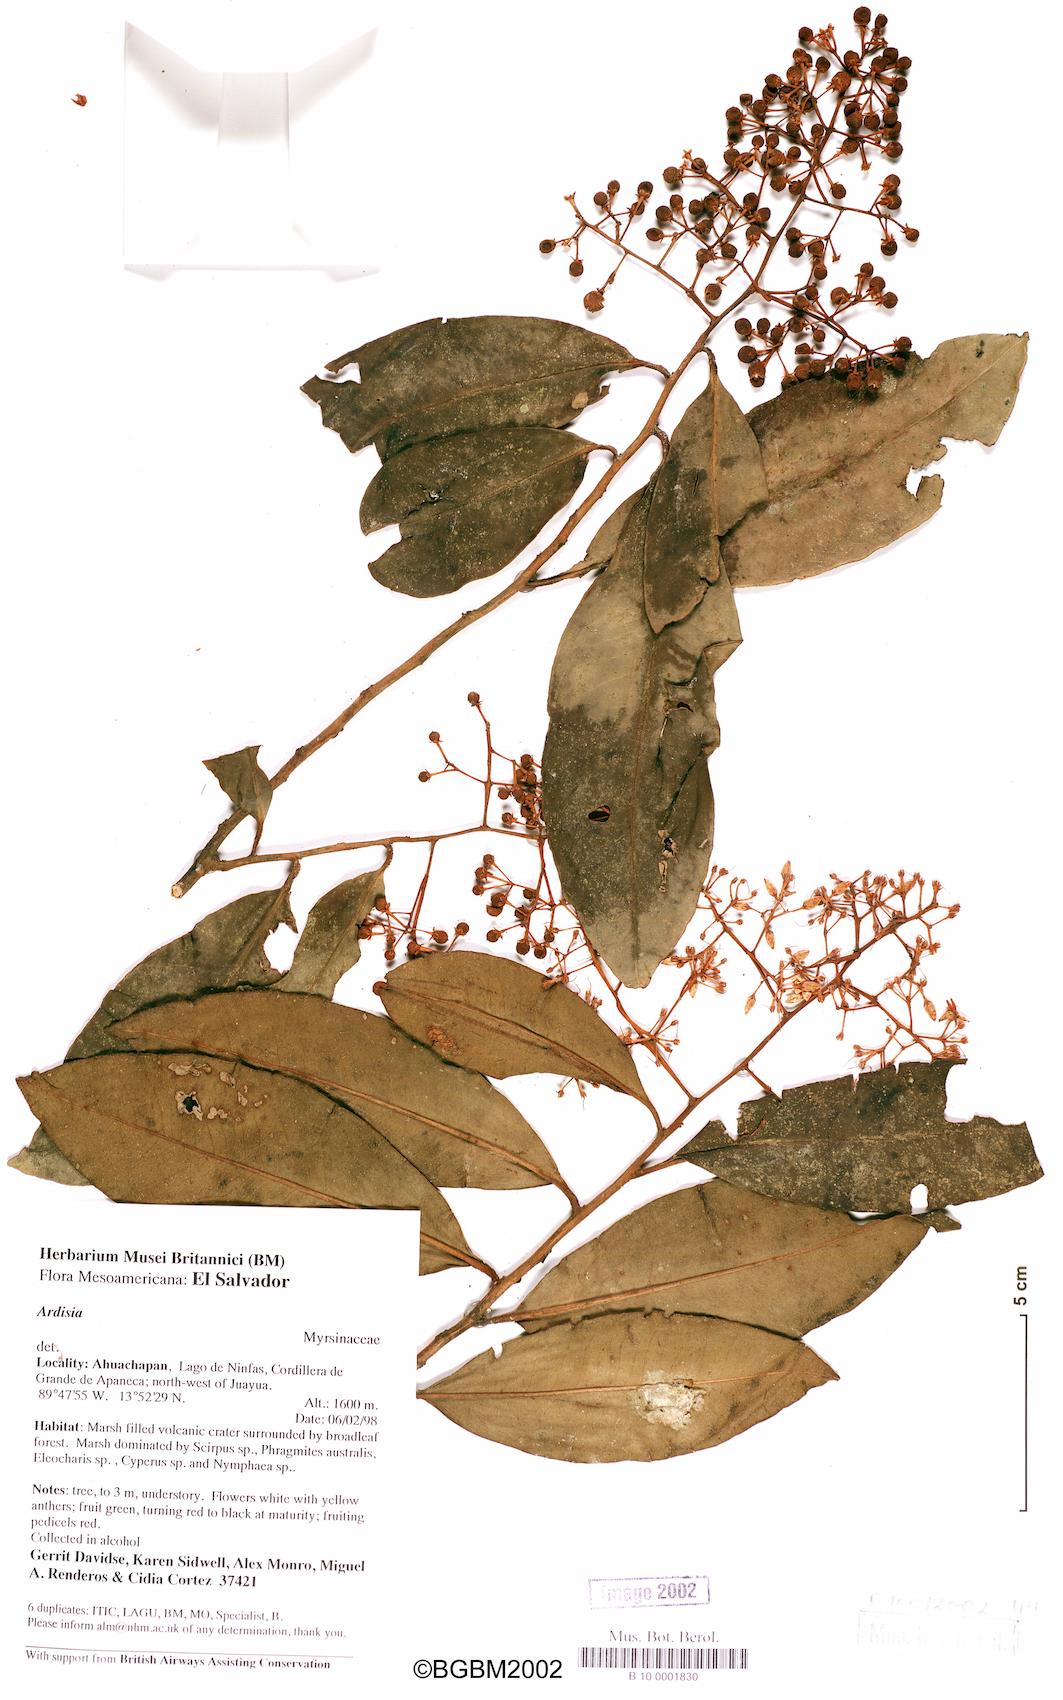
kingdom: Plantae
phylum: Tracheophyta
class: Magnoliopsida
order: Ericales
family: Primulaceae
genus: Ardisia
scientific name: Ardisia compressa
